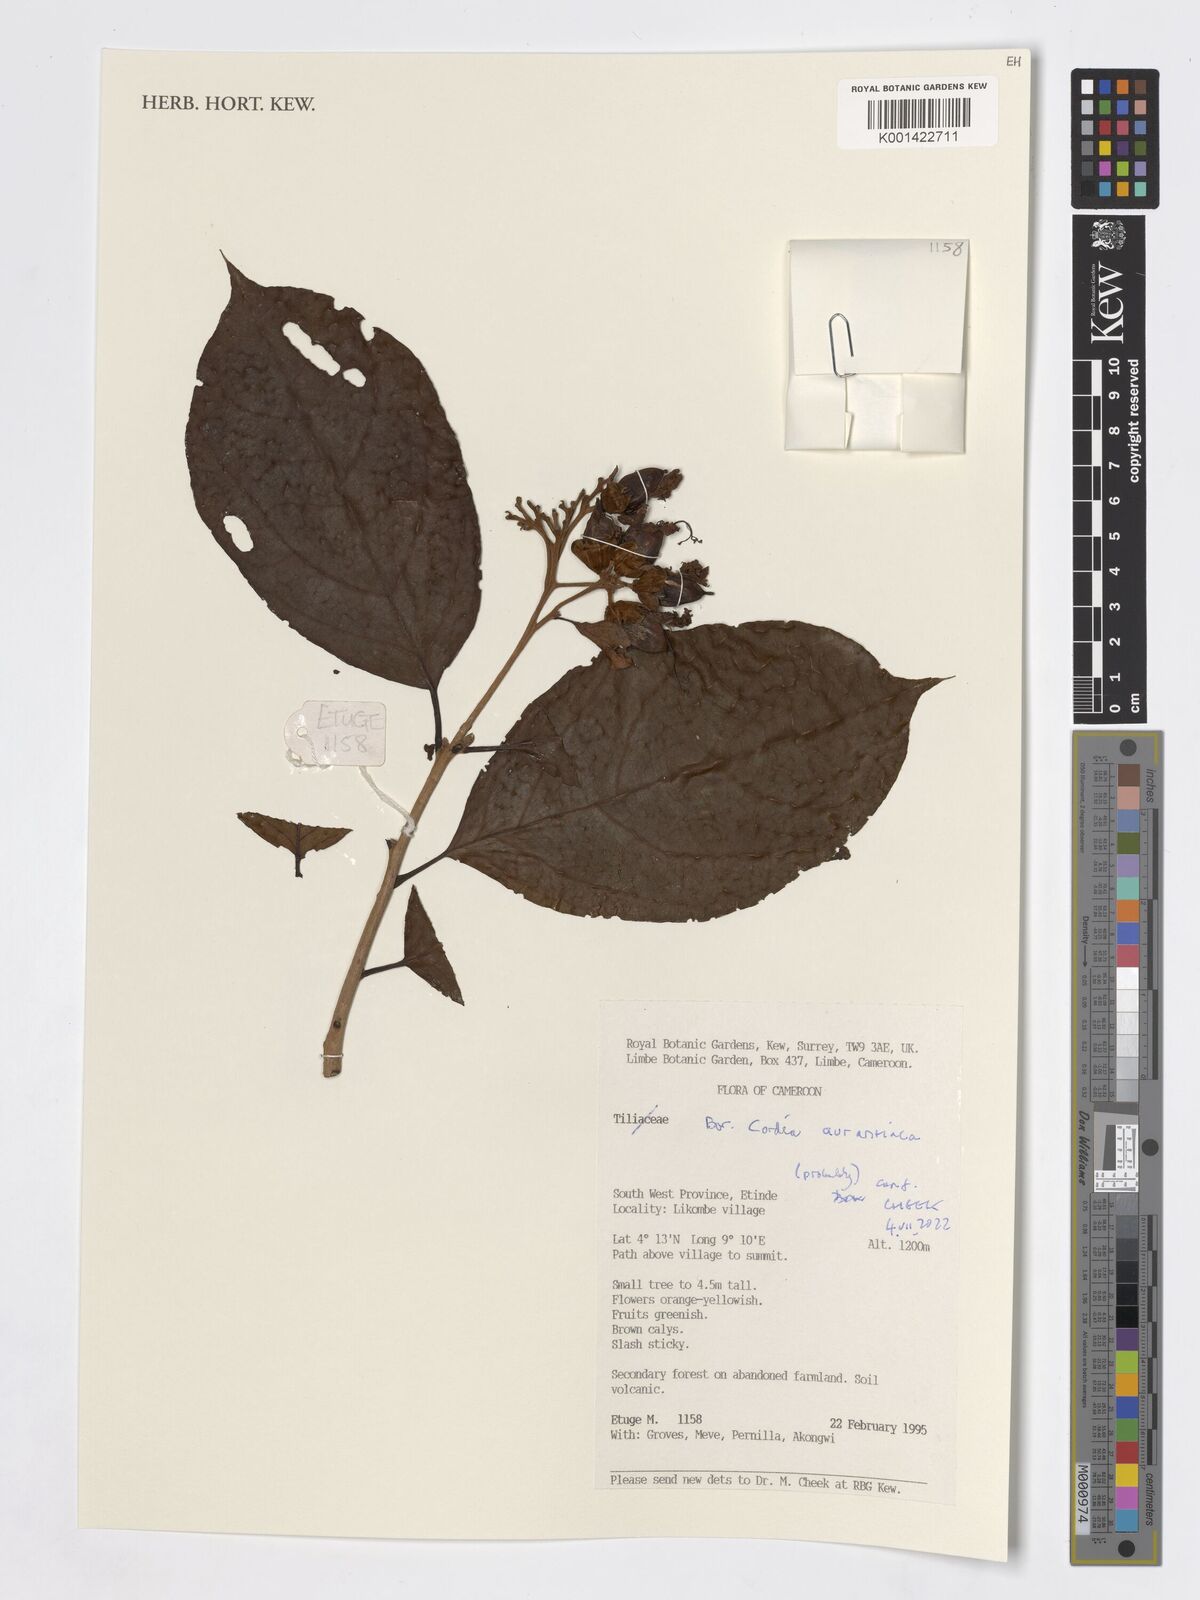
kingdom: Plantae
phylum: Tracheophyta
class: Magnoliopsida
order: Boraginales
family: Cordiaceae
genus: Cordia
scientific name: Cordia aurantiaca
